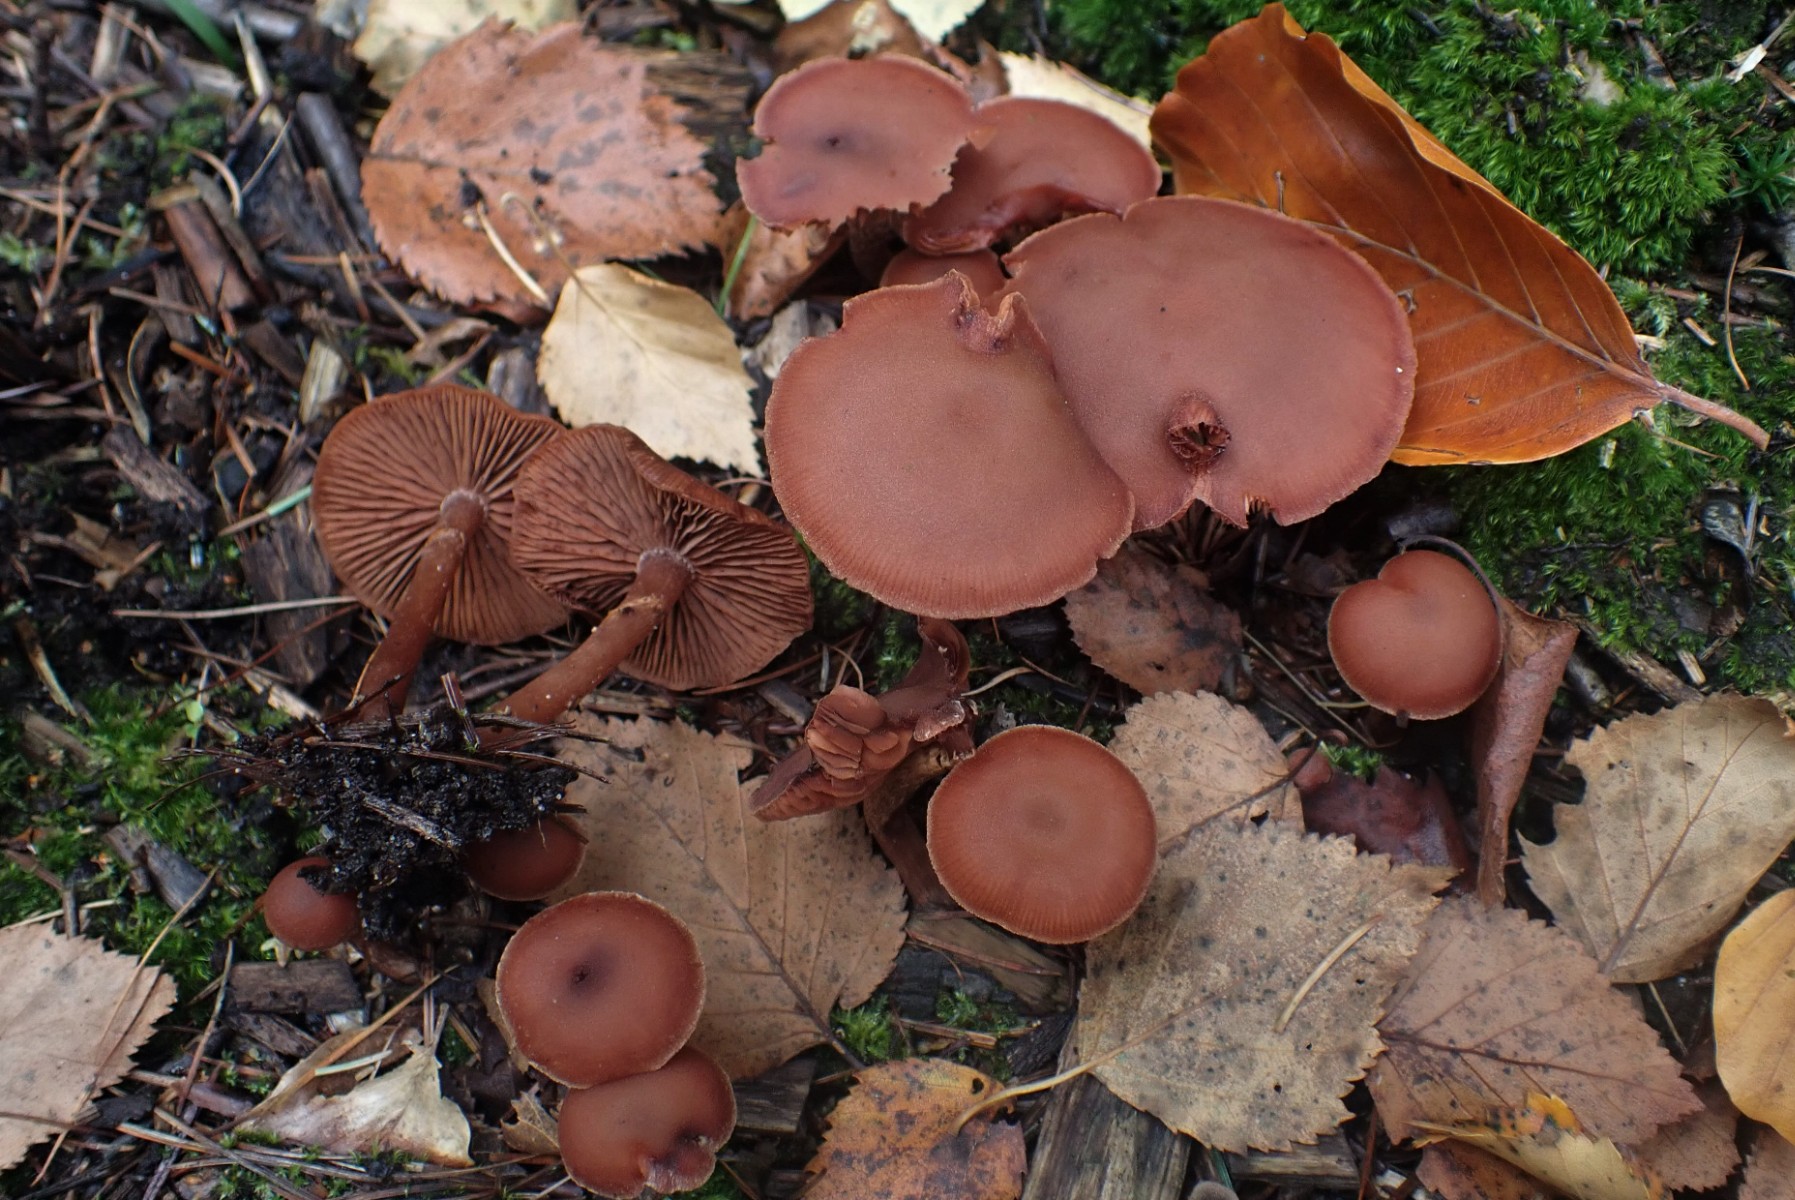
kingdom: Fungi
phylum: Basidiomycota
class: Agaricomycetes
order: Agaricales
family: Tubariaceae
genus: Tubaria
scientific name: Tubaria confragosa
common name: ring-fnughat
